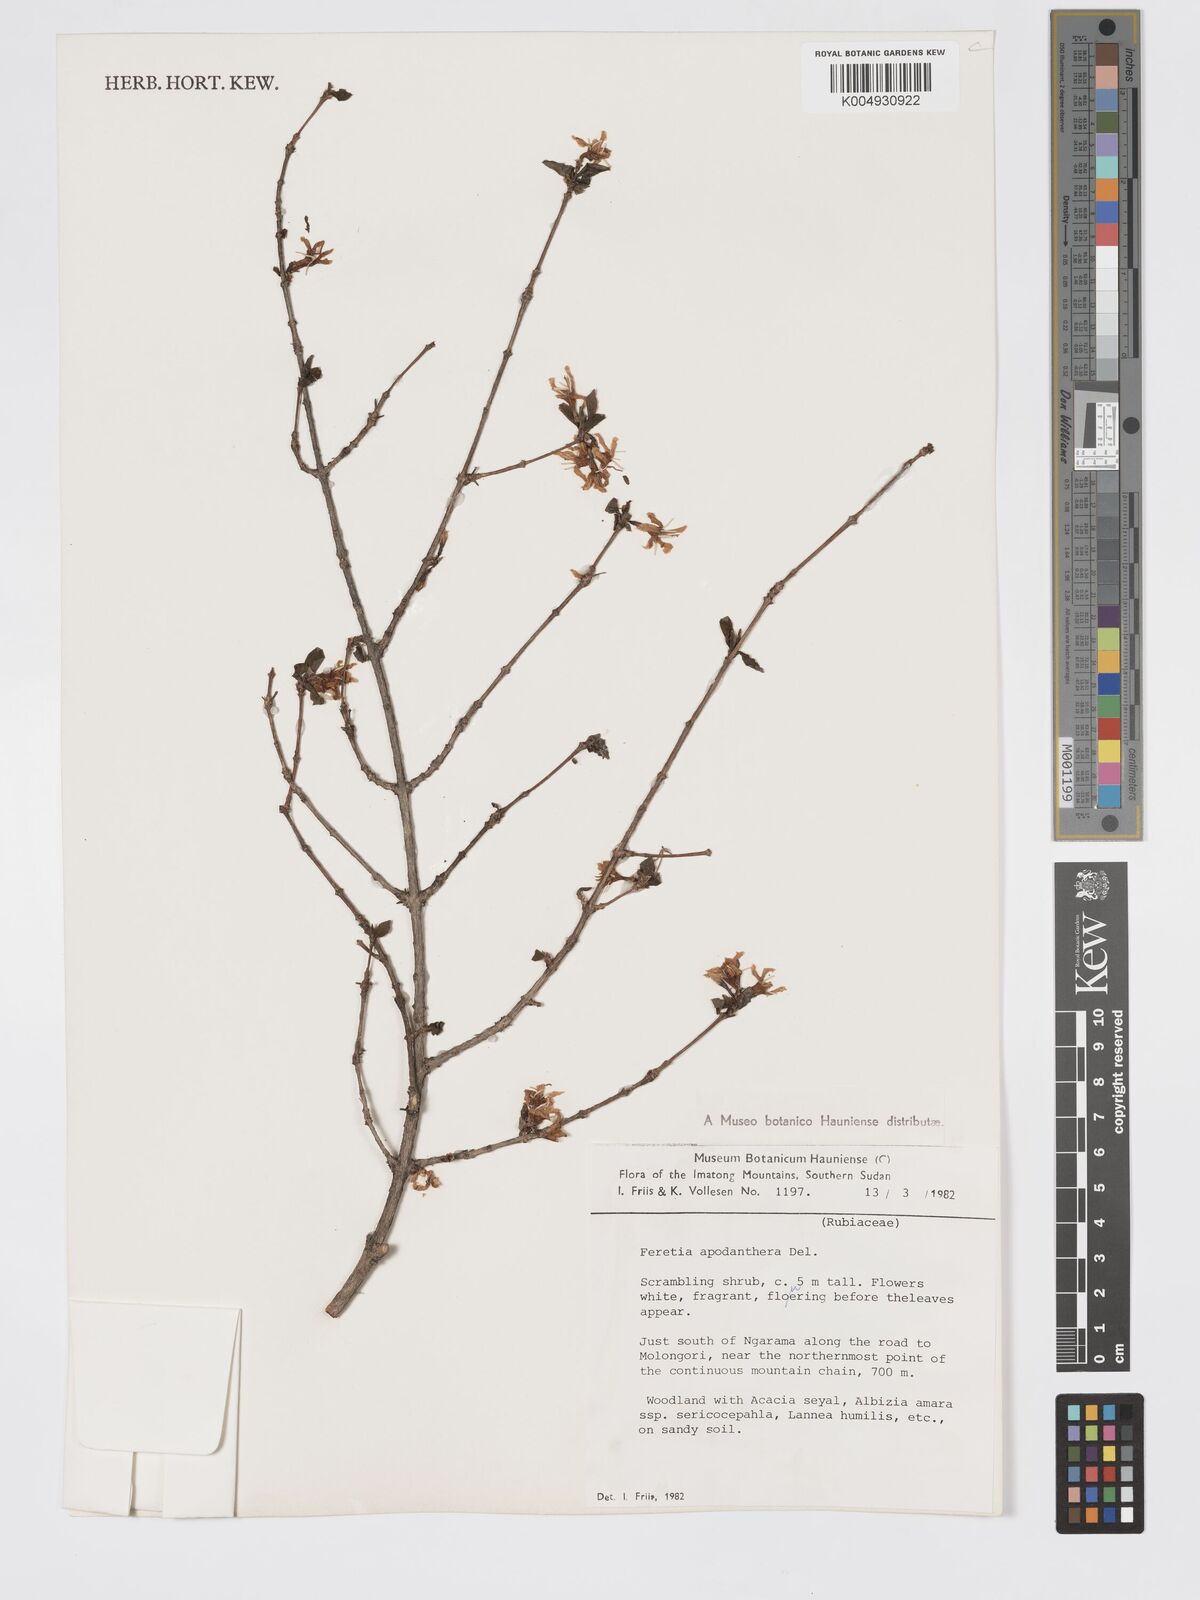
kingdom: Plantae
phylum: Tracheophyta
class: Magnoliopsida
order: Gentianales
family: Rubiaceae
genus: Feretia
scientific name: Feretia apodanthera
